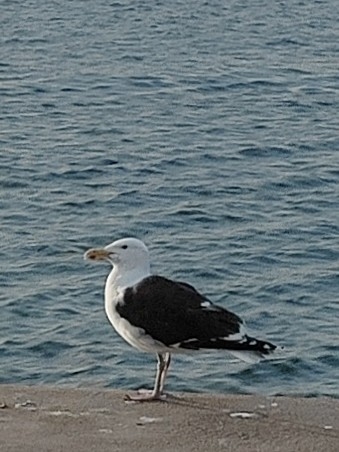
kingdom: Animalia
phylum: Chordata
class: Aves
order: Charadriiformes
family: Laridae
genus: Larus
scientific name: Larus marinus
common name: Svartbag
